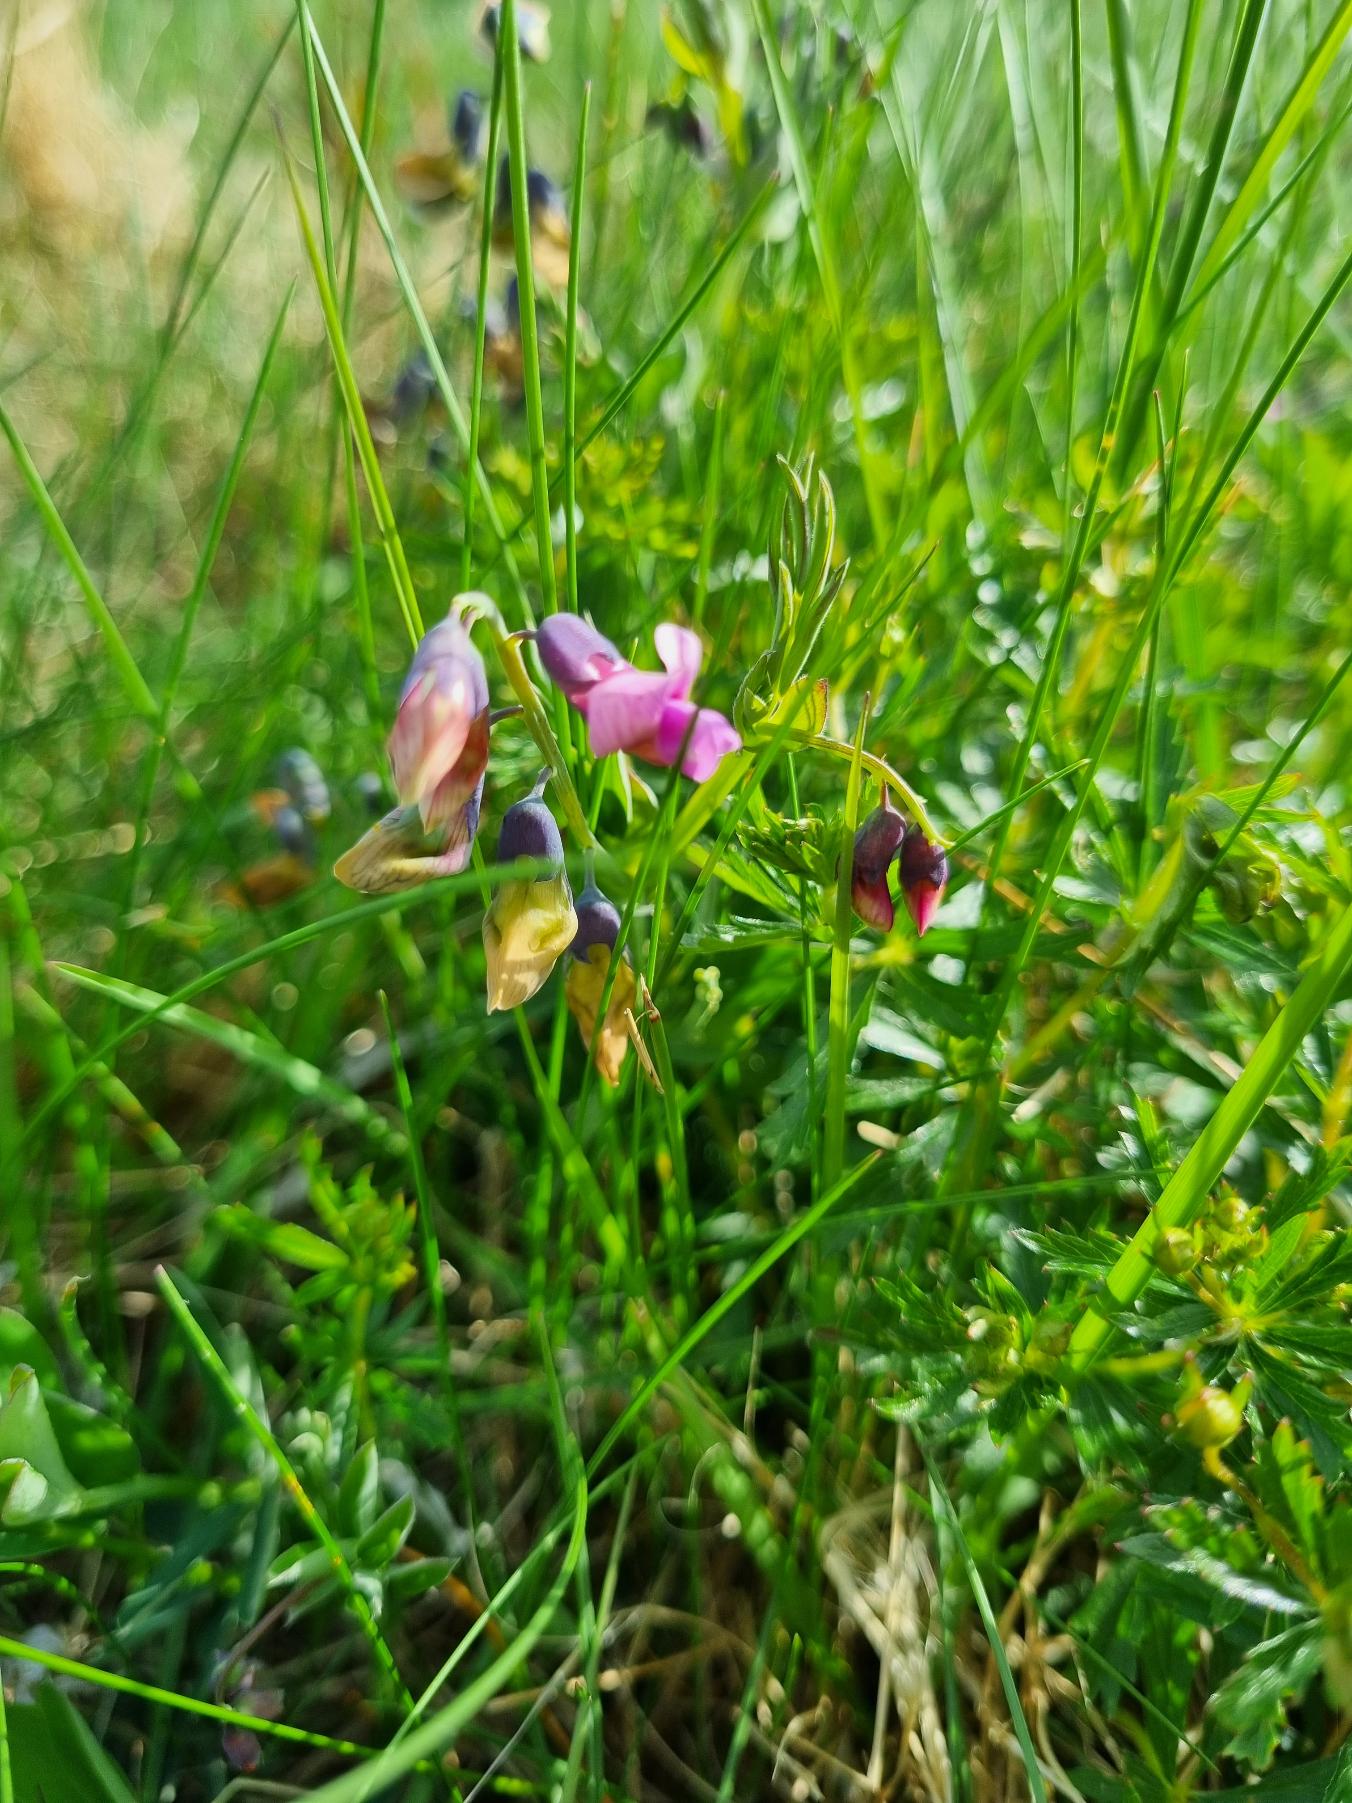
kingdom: Plantae
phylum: Tracheophyta
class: Magnoliopsida
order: Fabales
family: Fabaceae
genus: Lathyrus
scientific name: Lathyrus linifolius
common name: Krat-fladbælg
